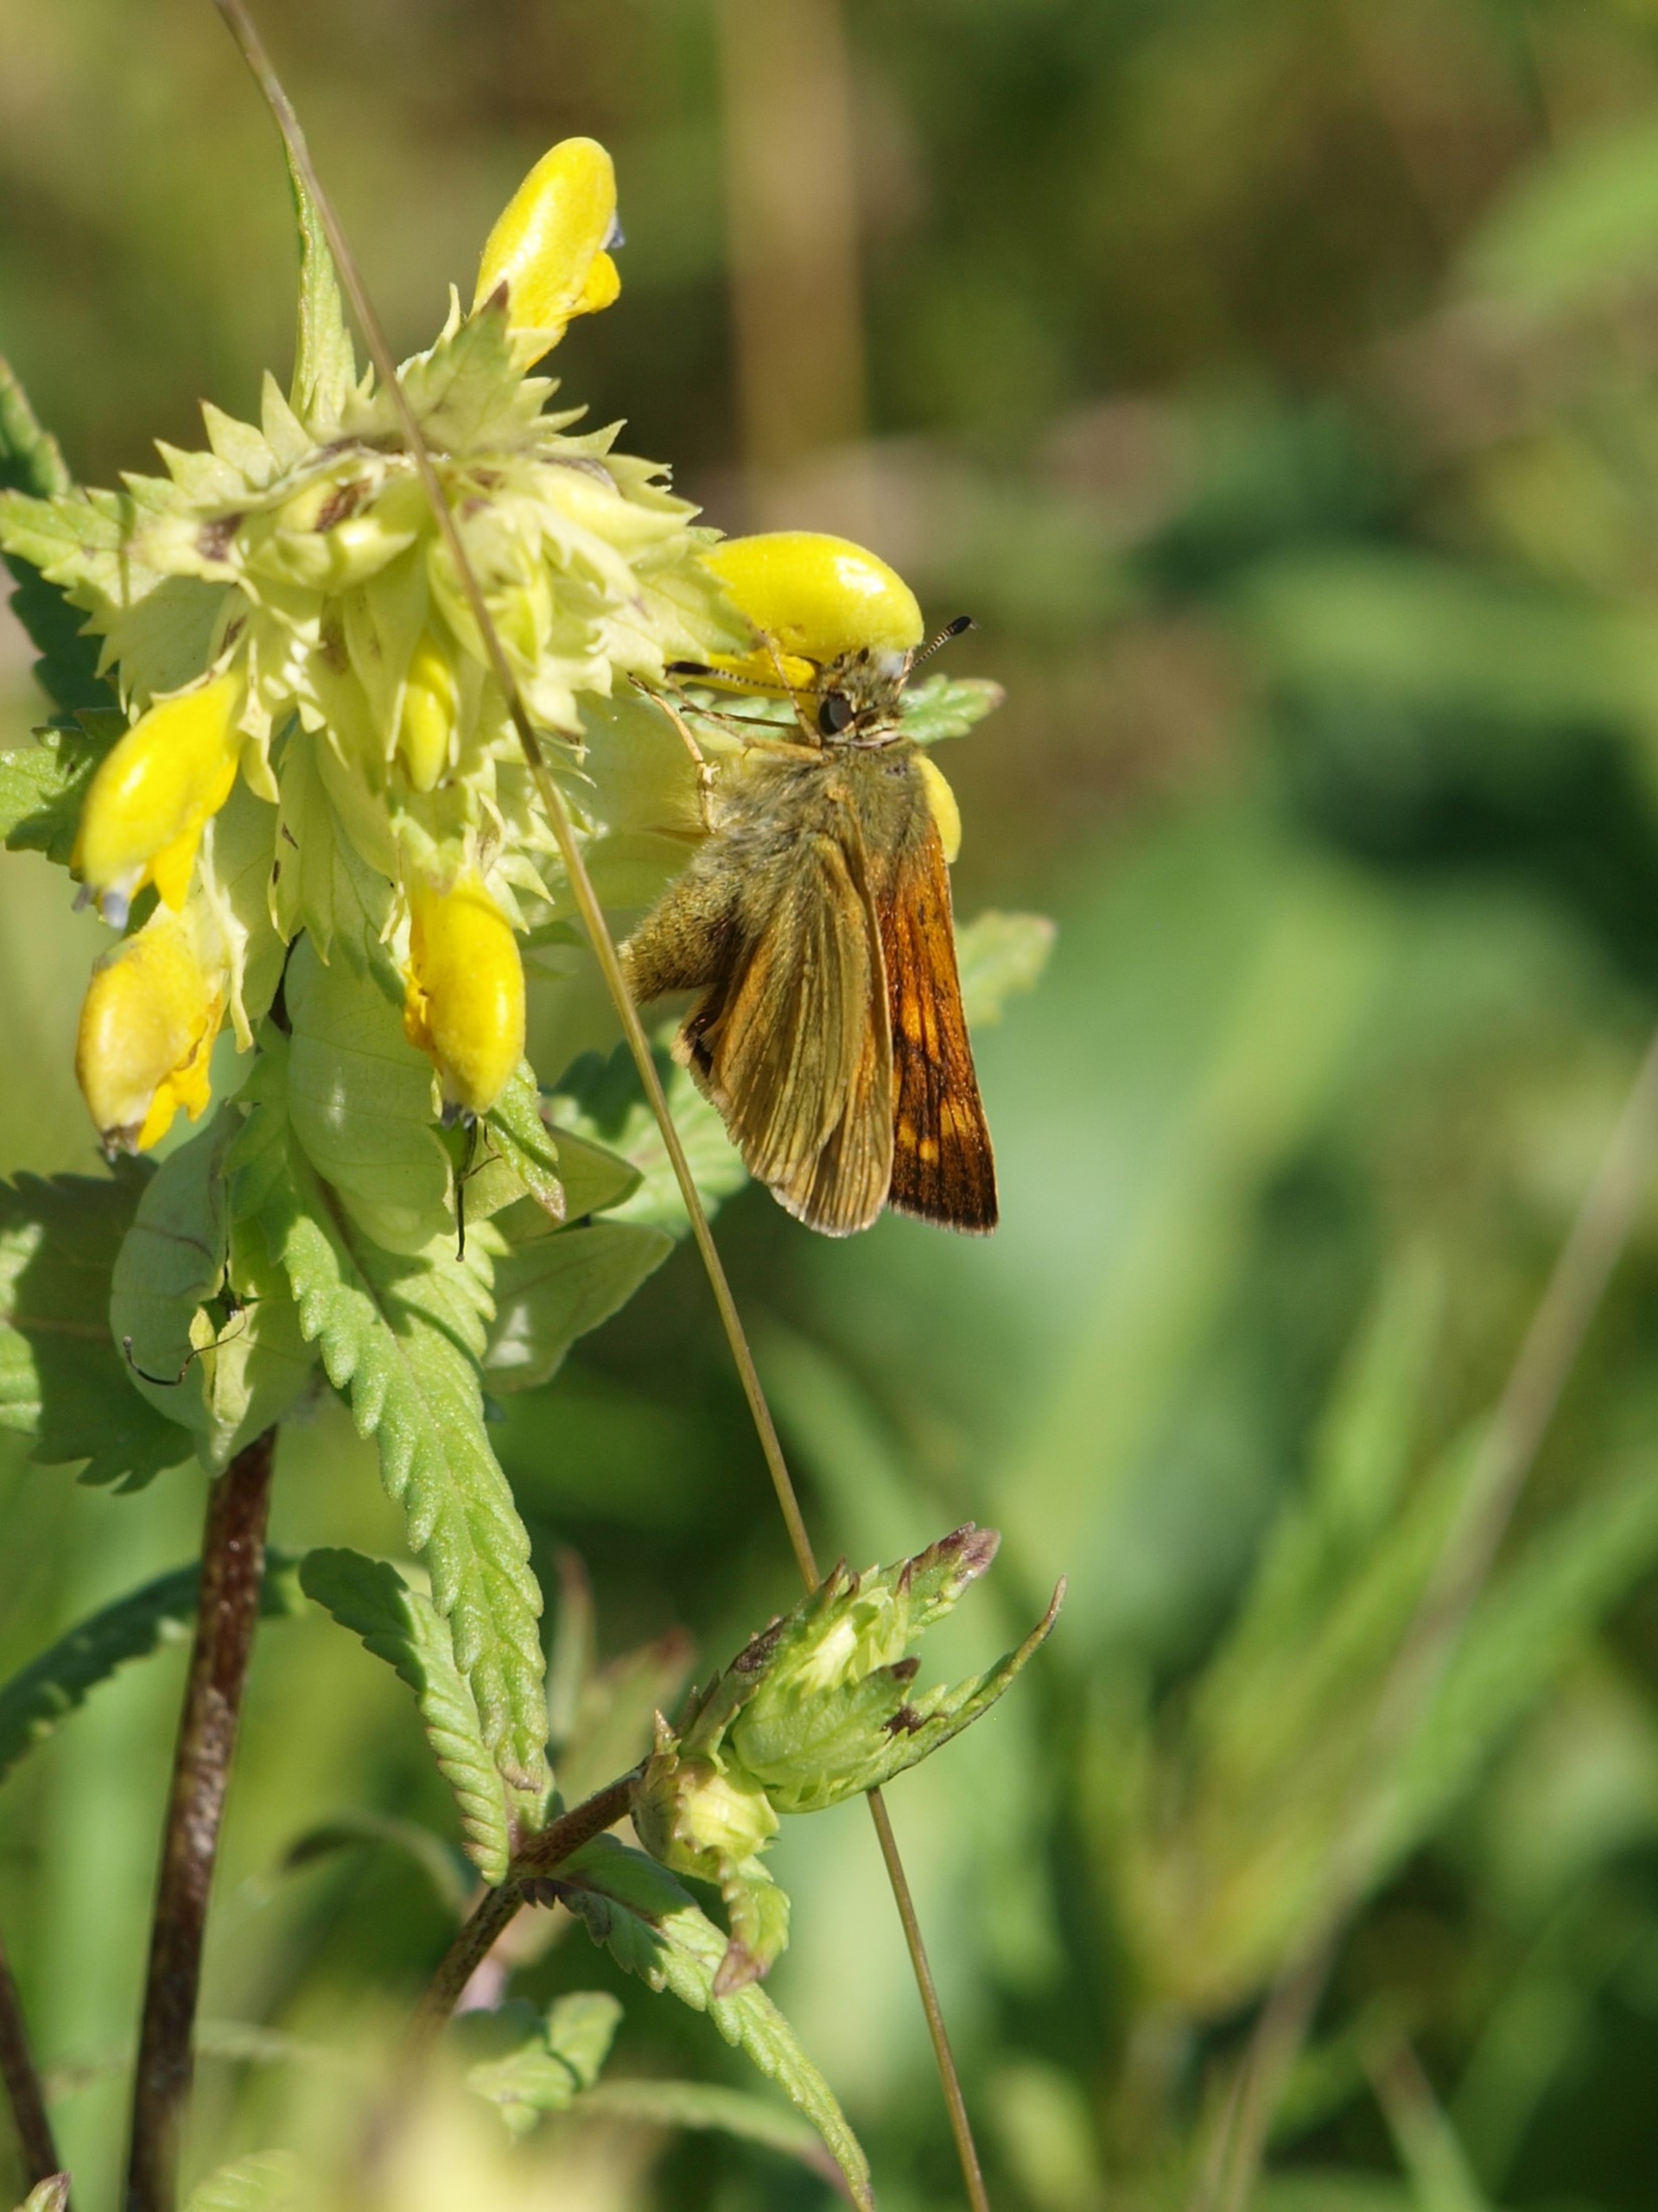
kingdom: Animalia
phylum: Arthropoda
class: Insecta
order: Lepidoptera
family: Hesperiidae
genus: Ochlodes
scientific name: Ochlodes venata
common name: Stor bredpande
